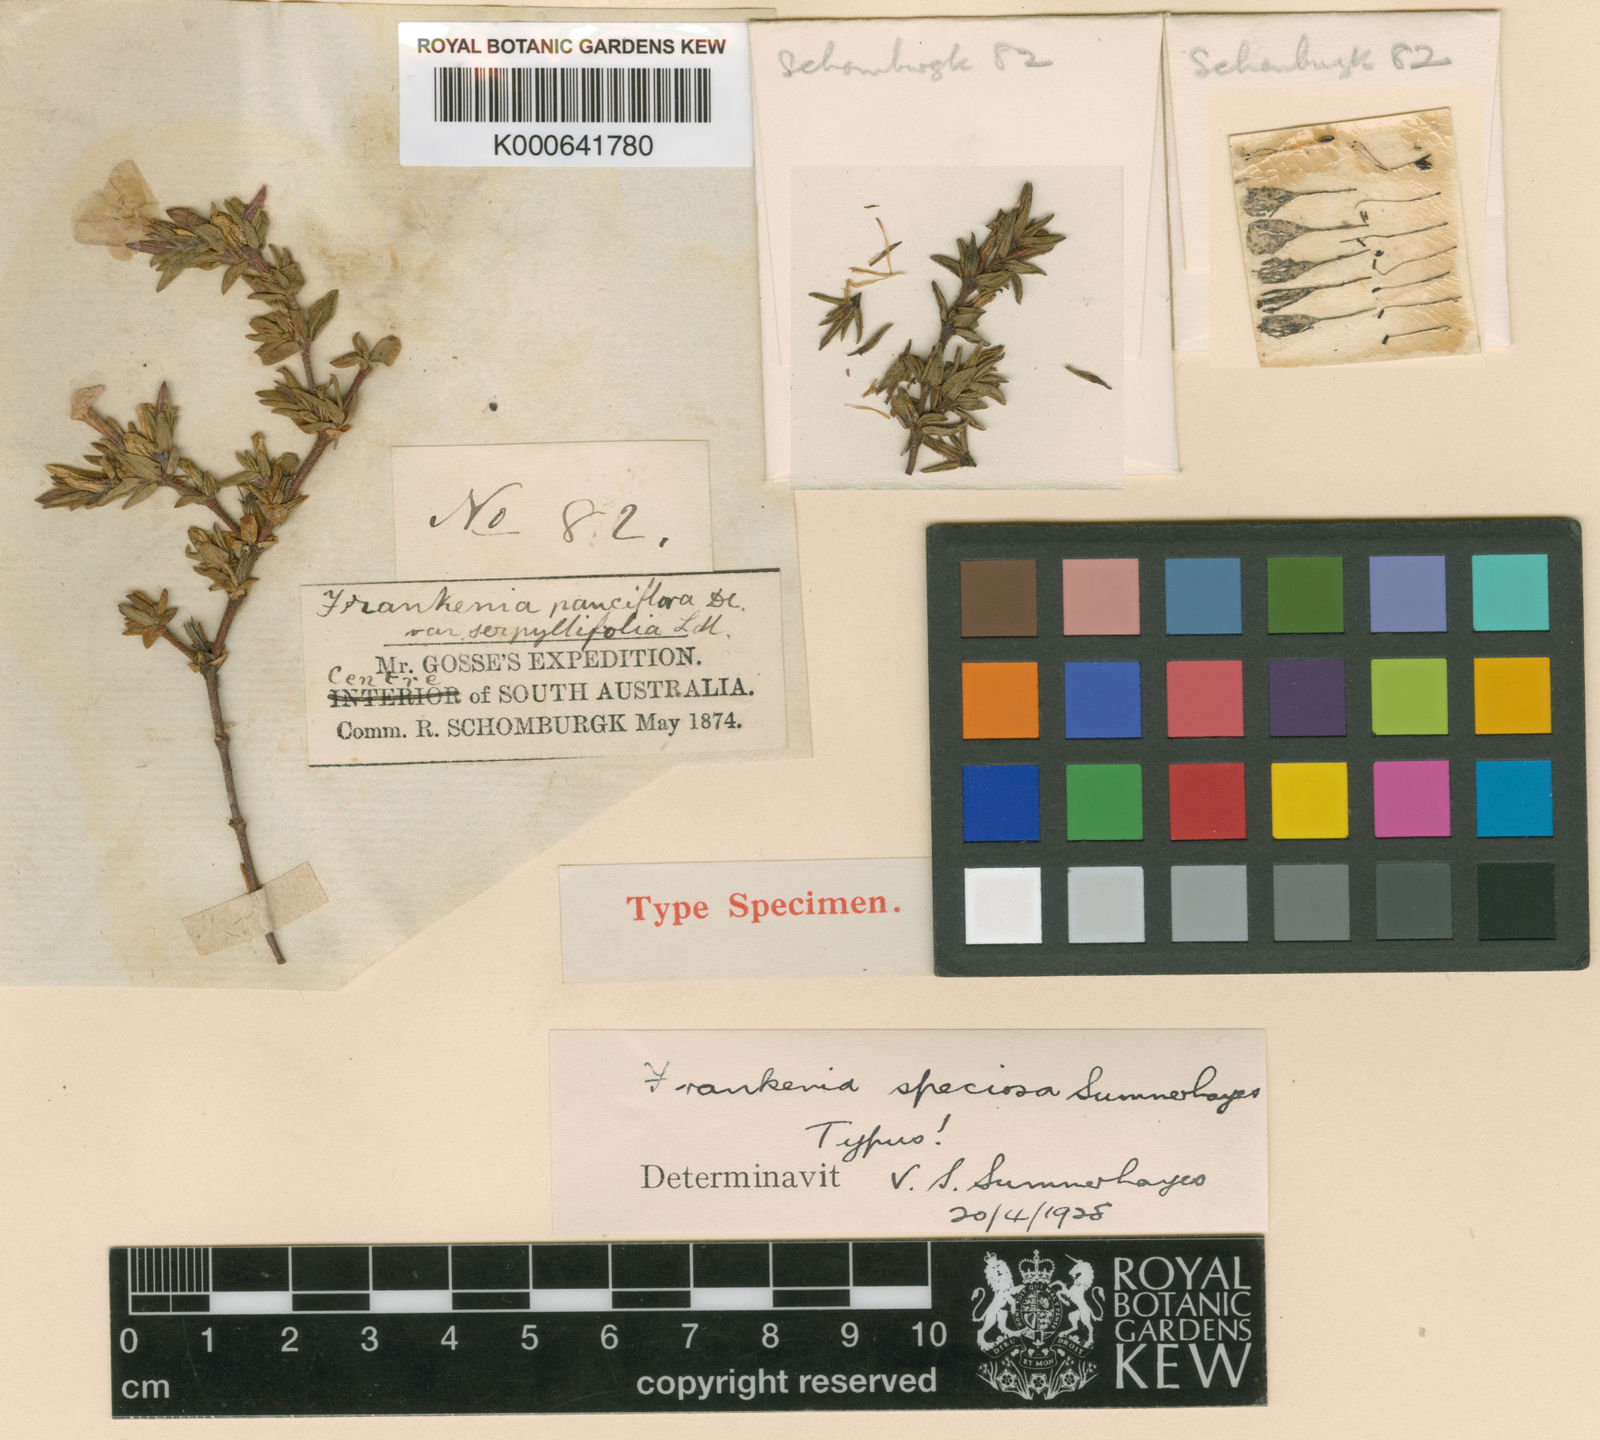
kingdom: Plantae
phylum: Tracheophyta
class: Magnoliopsida
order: Caryophyllales
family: Frankeniaceae
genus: Frankenia
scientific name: Frankenia cordata
